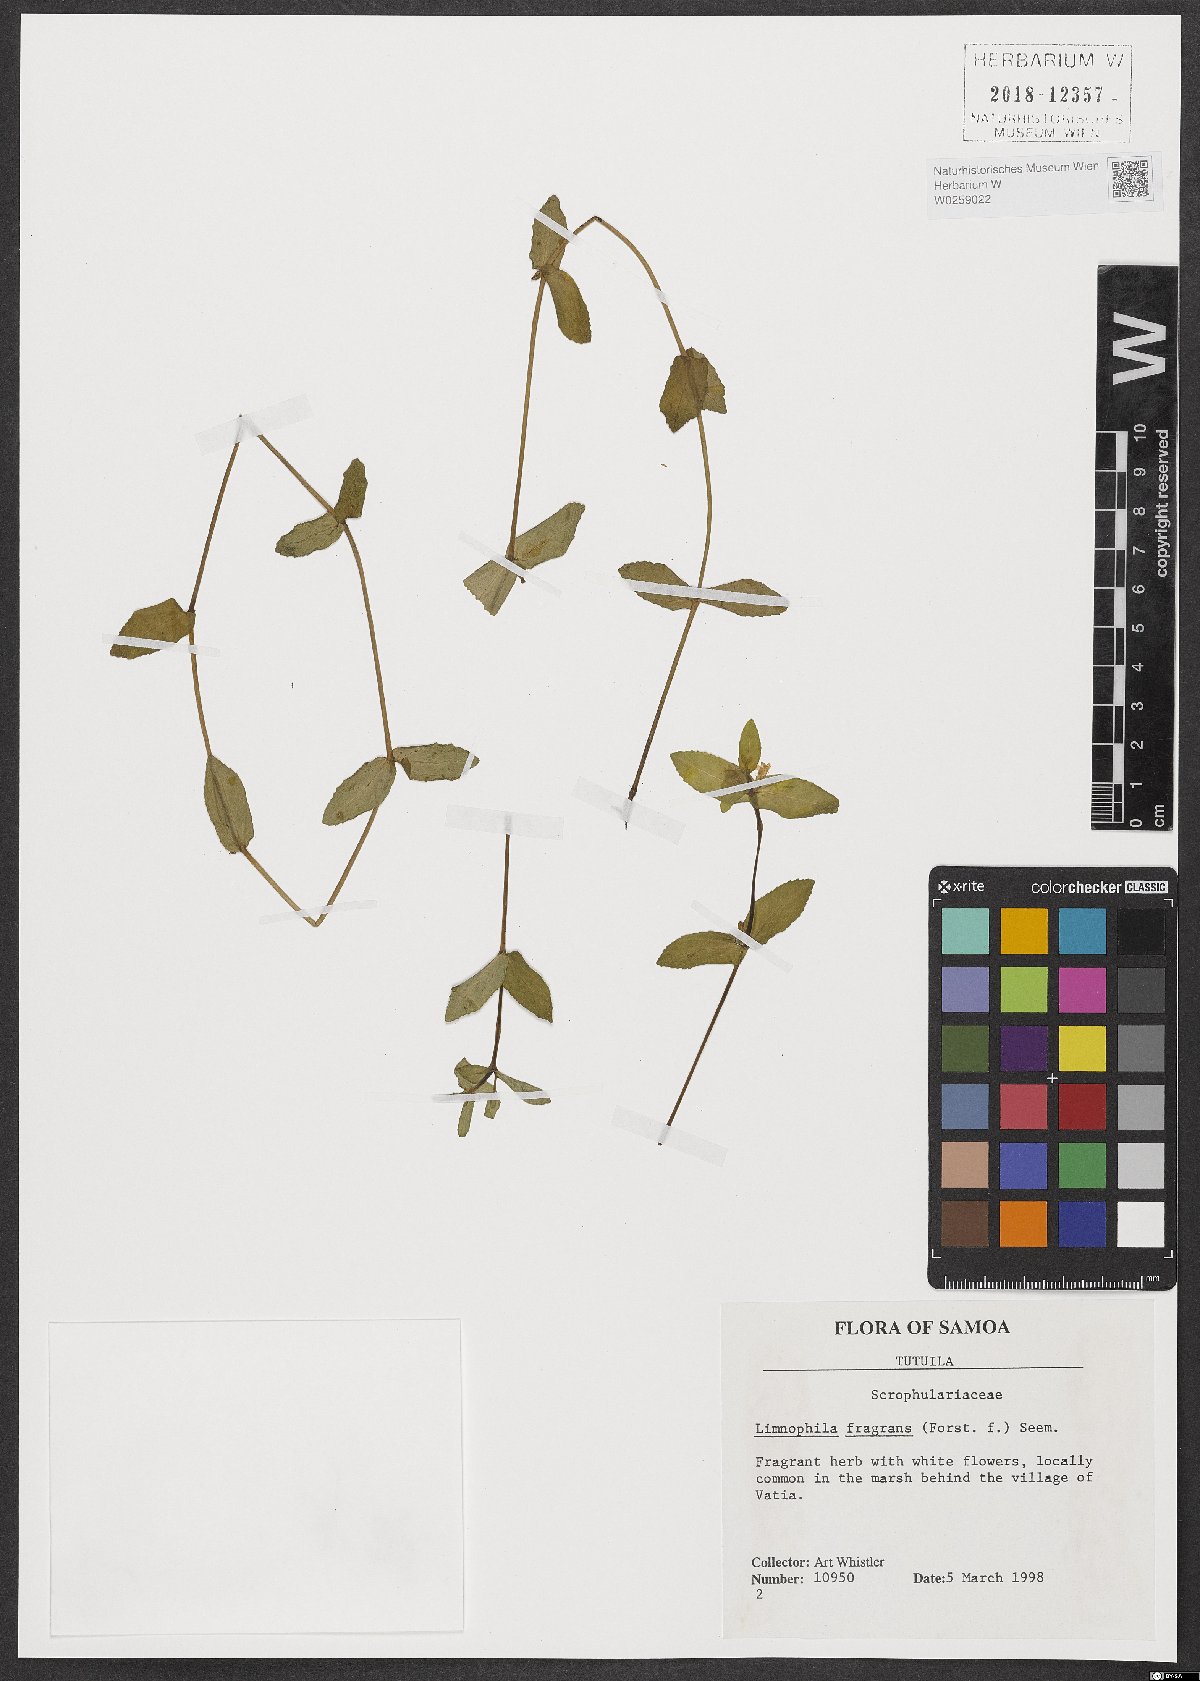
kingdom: Plantae
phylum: Tracheophyta
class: Magnoliopsida
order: Lamiales
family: Plantaginaceae
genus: Limnophila
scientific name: Limnophila fragrans
